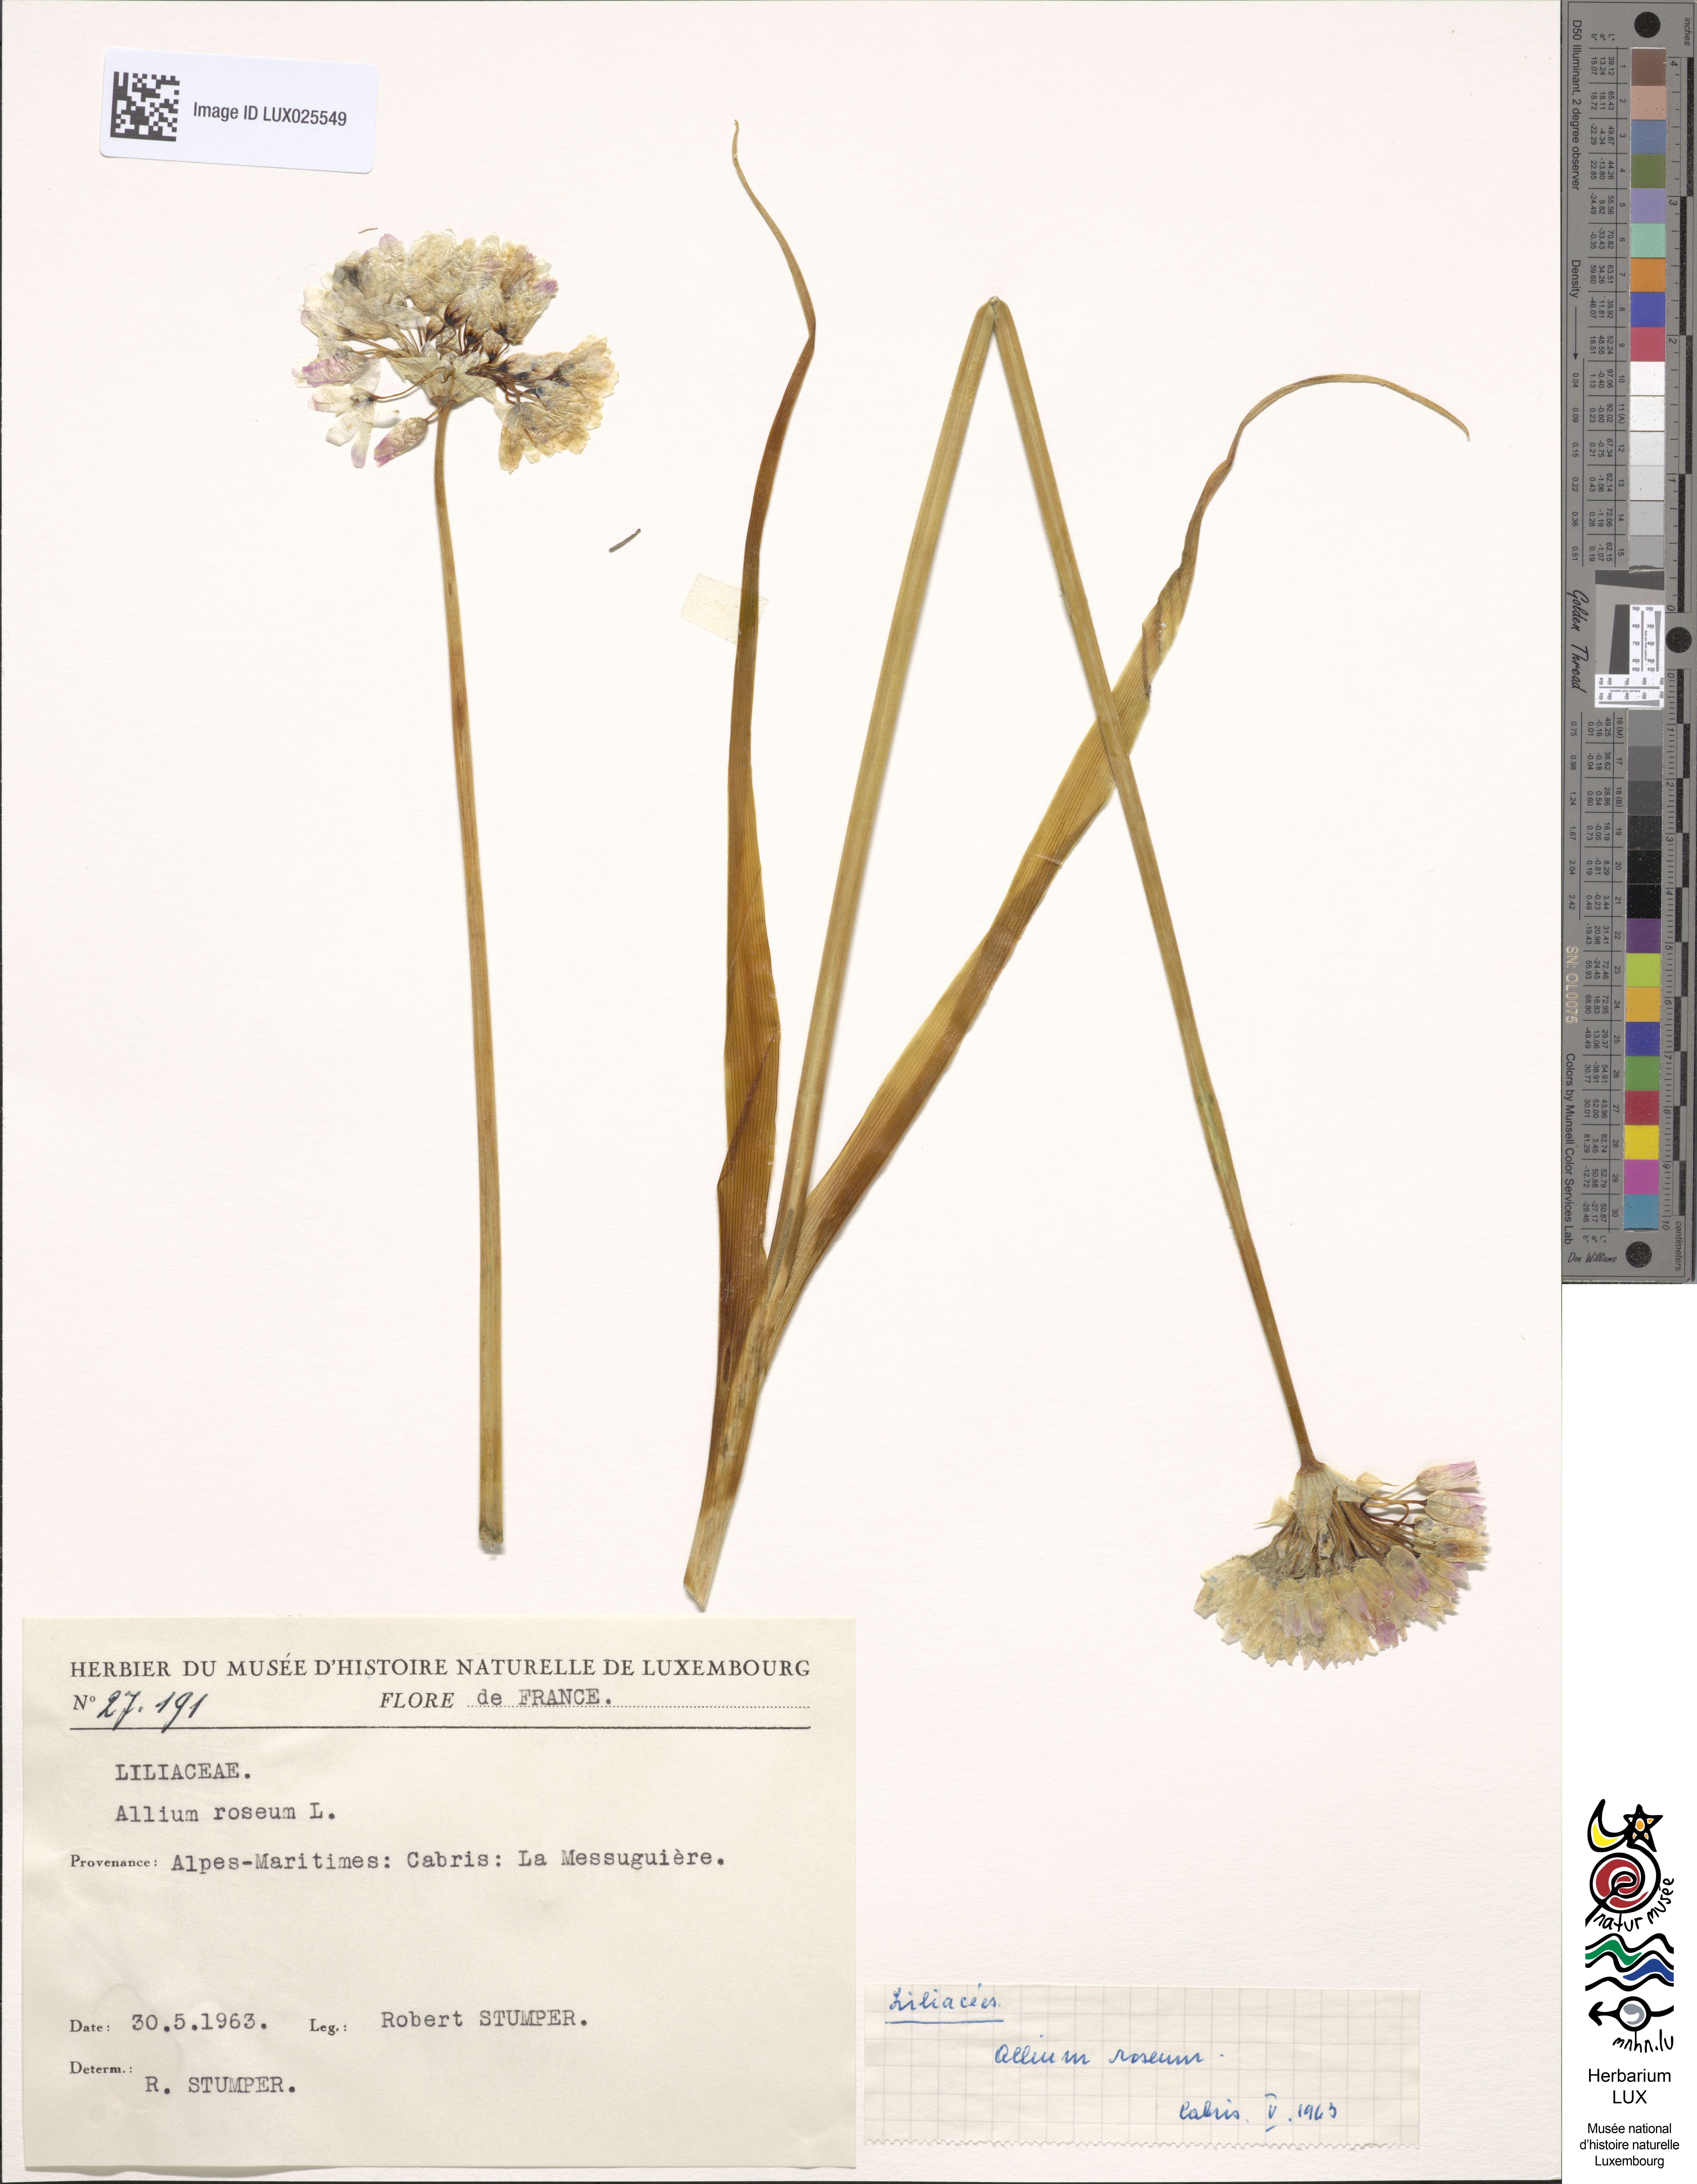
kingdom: Plantae
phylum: Tracheophyta
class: Liliopsida
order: Asparagales
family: Amaryllidaceae
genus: Allium
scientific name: Allium roseum
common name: Rosy garlic
